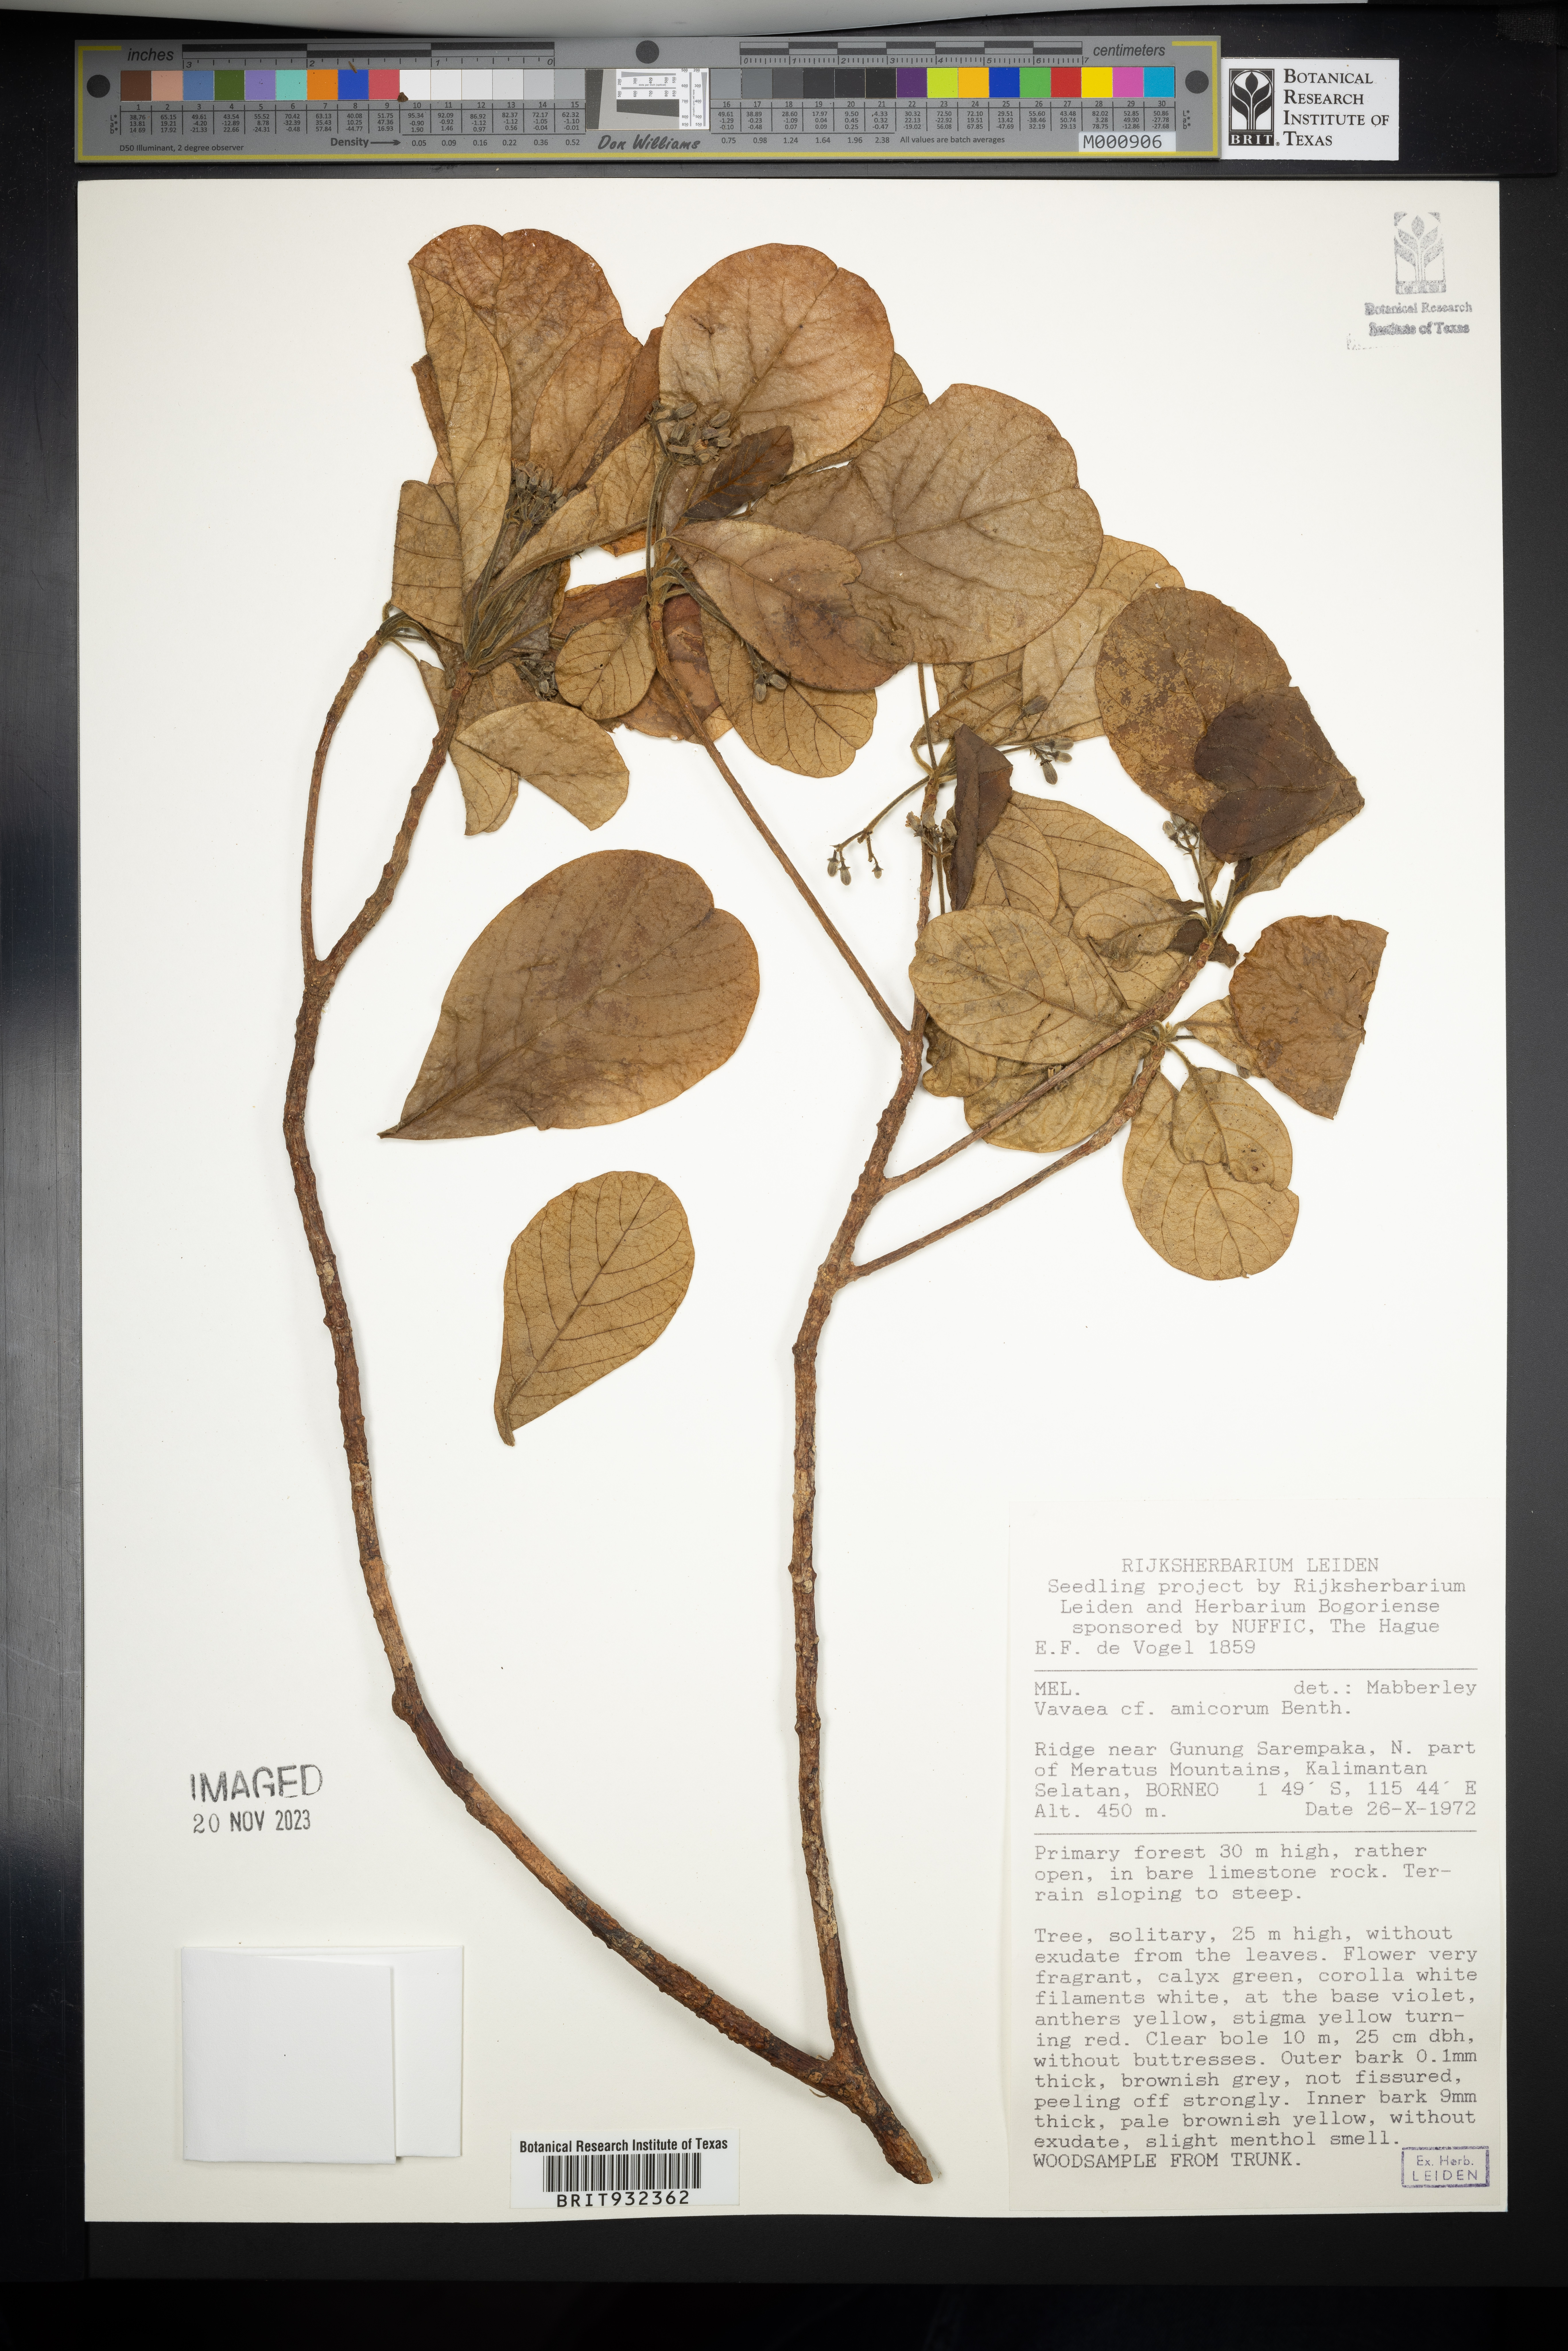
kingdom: Plantae
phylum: Tracheophyta
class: Magnoliopsida
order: Sapindales
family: Meliaceae
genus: Vavaea
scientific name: Vavaea
